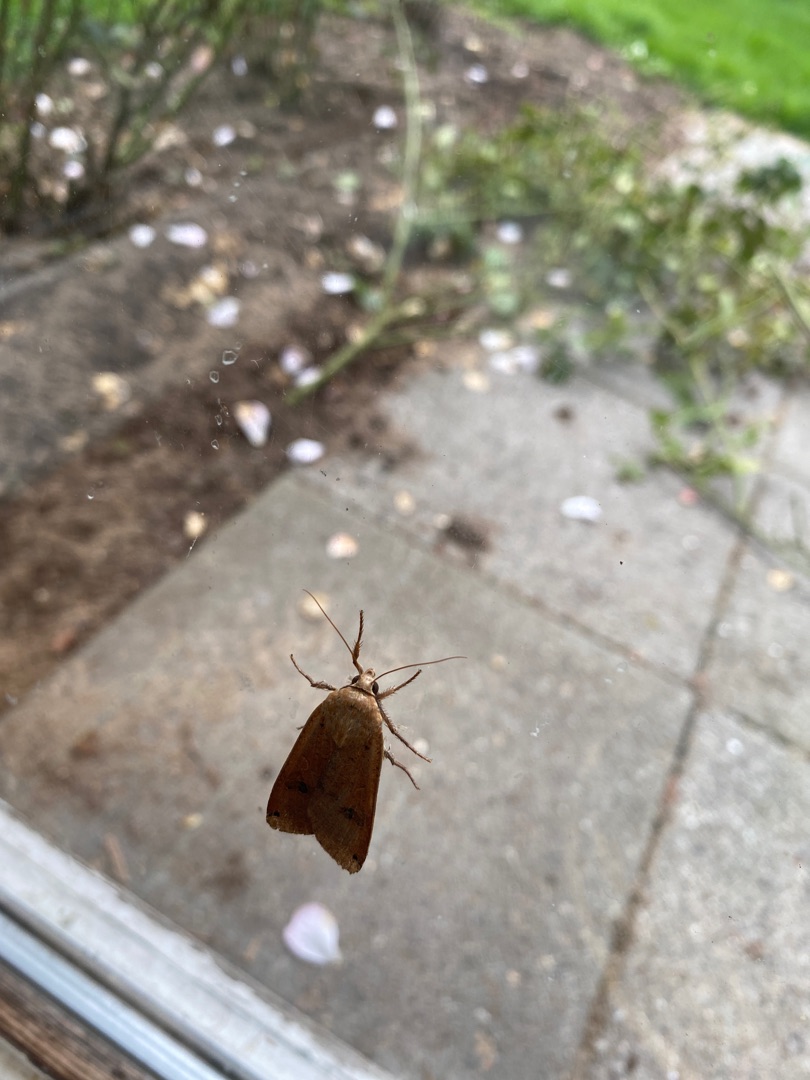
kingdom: Animalia
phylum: Arthropoda
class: Insecta
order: Lepidoptera
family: Noctuidae
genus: Noctua
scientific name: Noctua pronuba
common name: Stor smutugle
